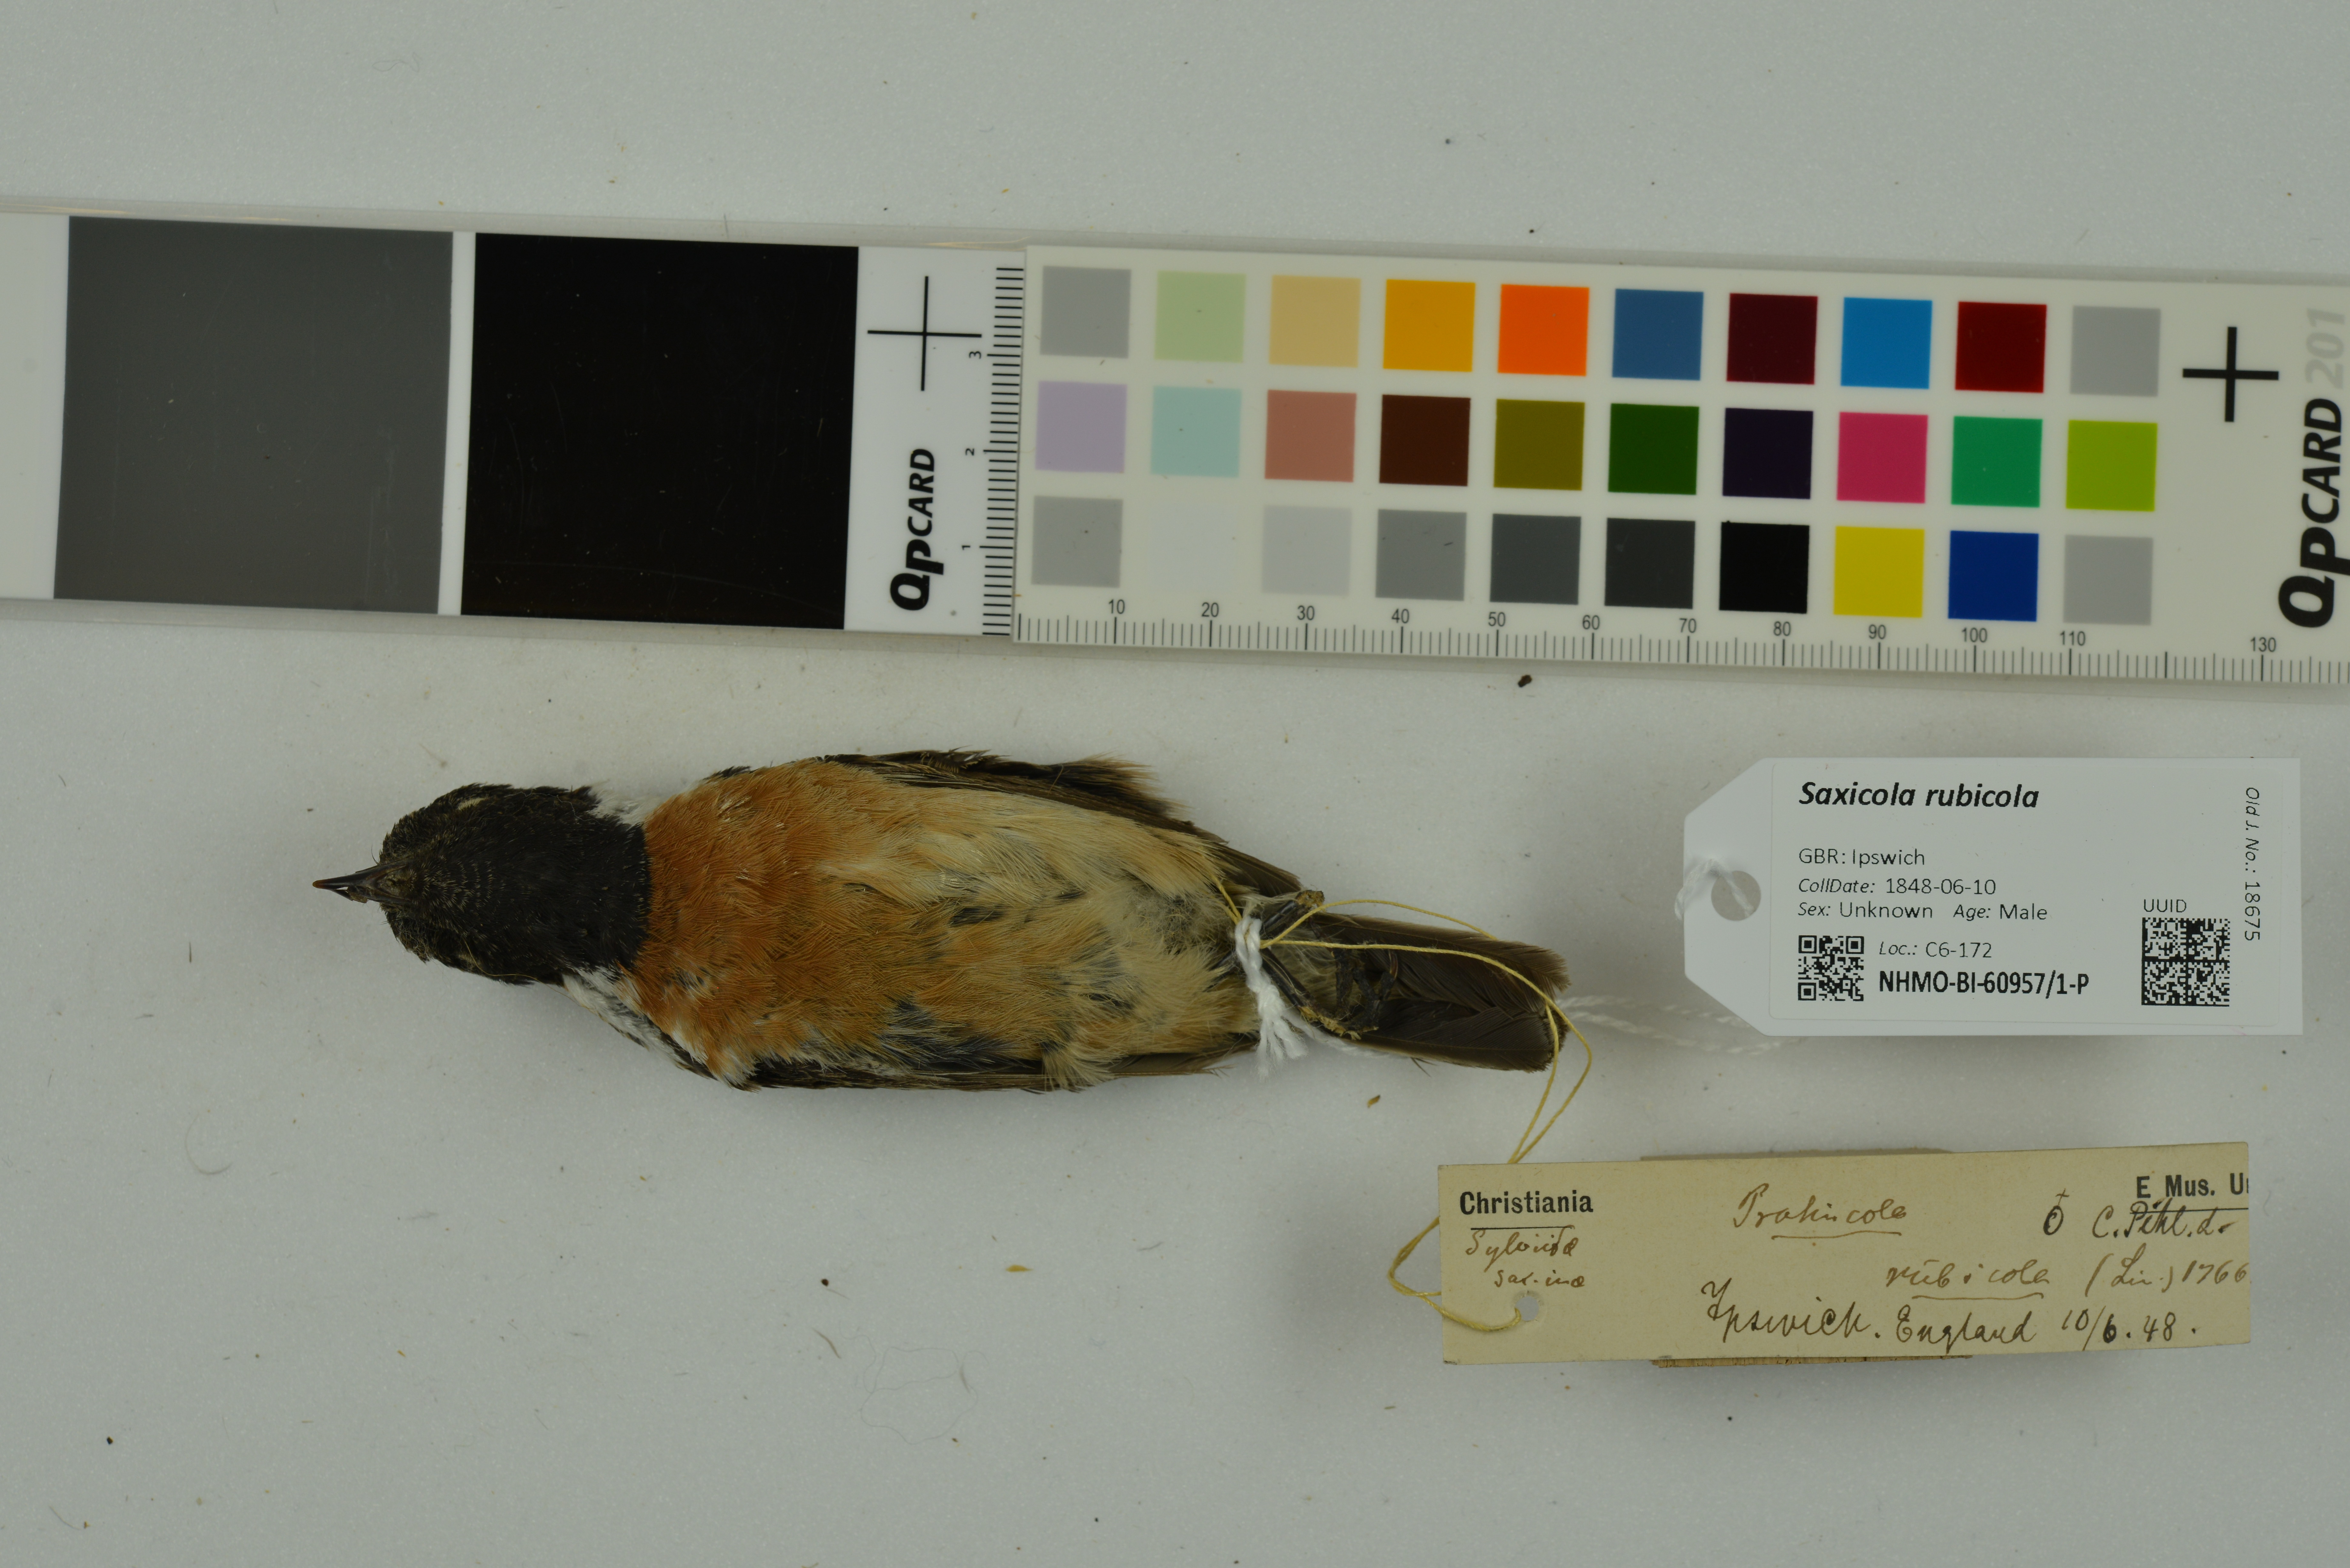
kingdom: Animalia
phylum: Chordata
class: Aves
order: Passeriformes
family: Muscicapidae
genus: Saxicola
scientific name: Saxicola rubicola
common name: European stonechat
